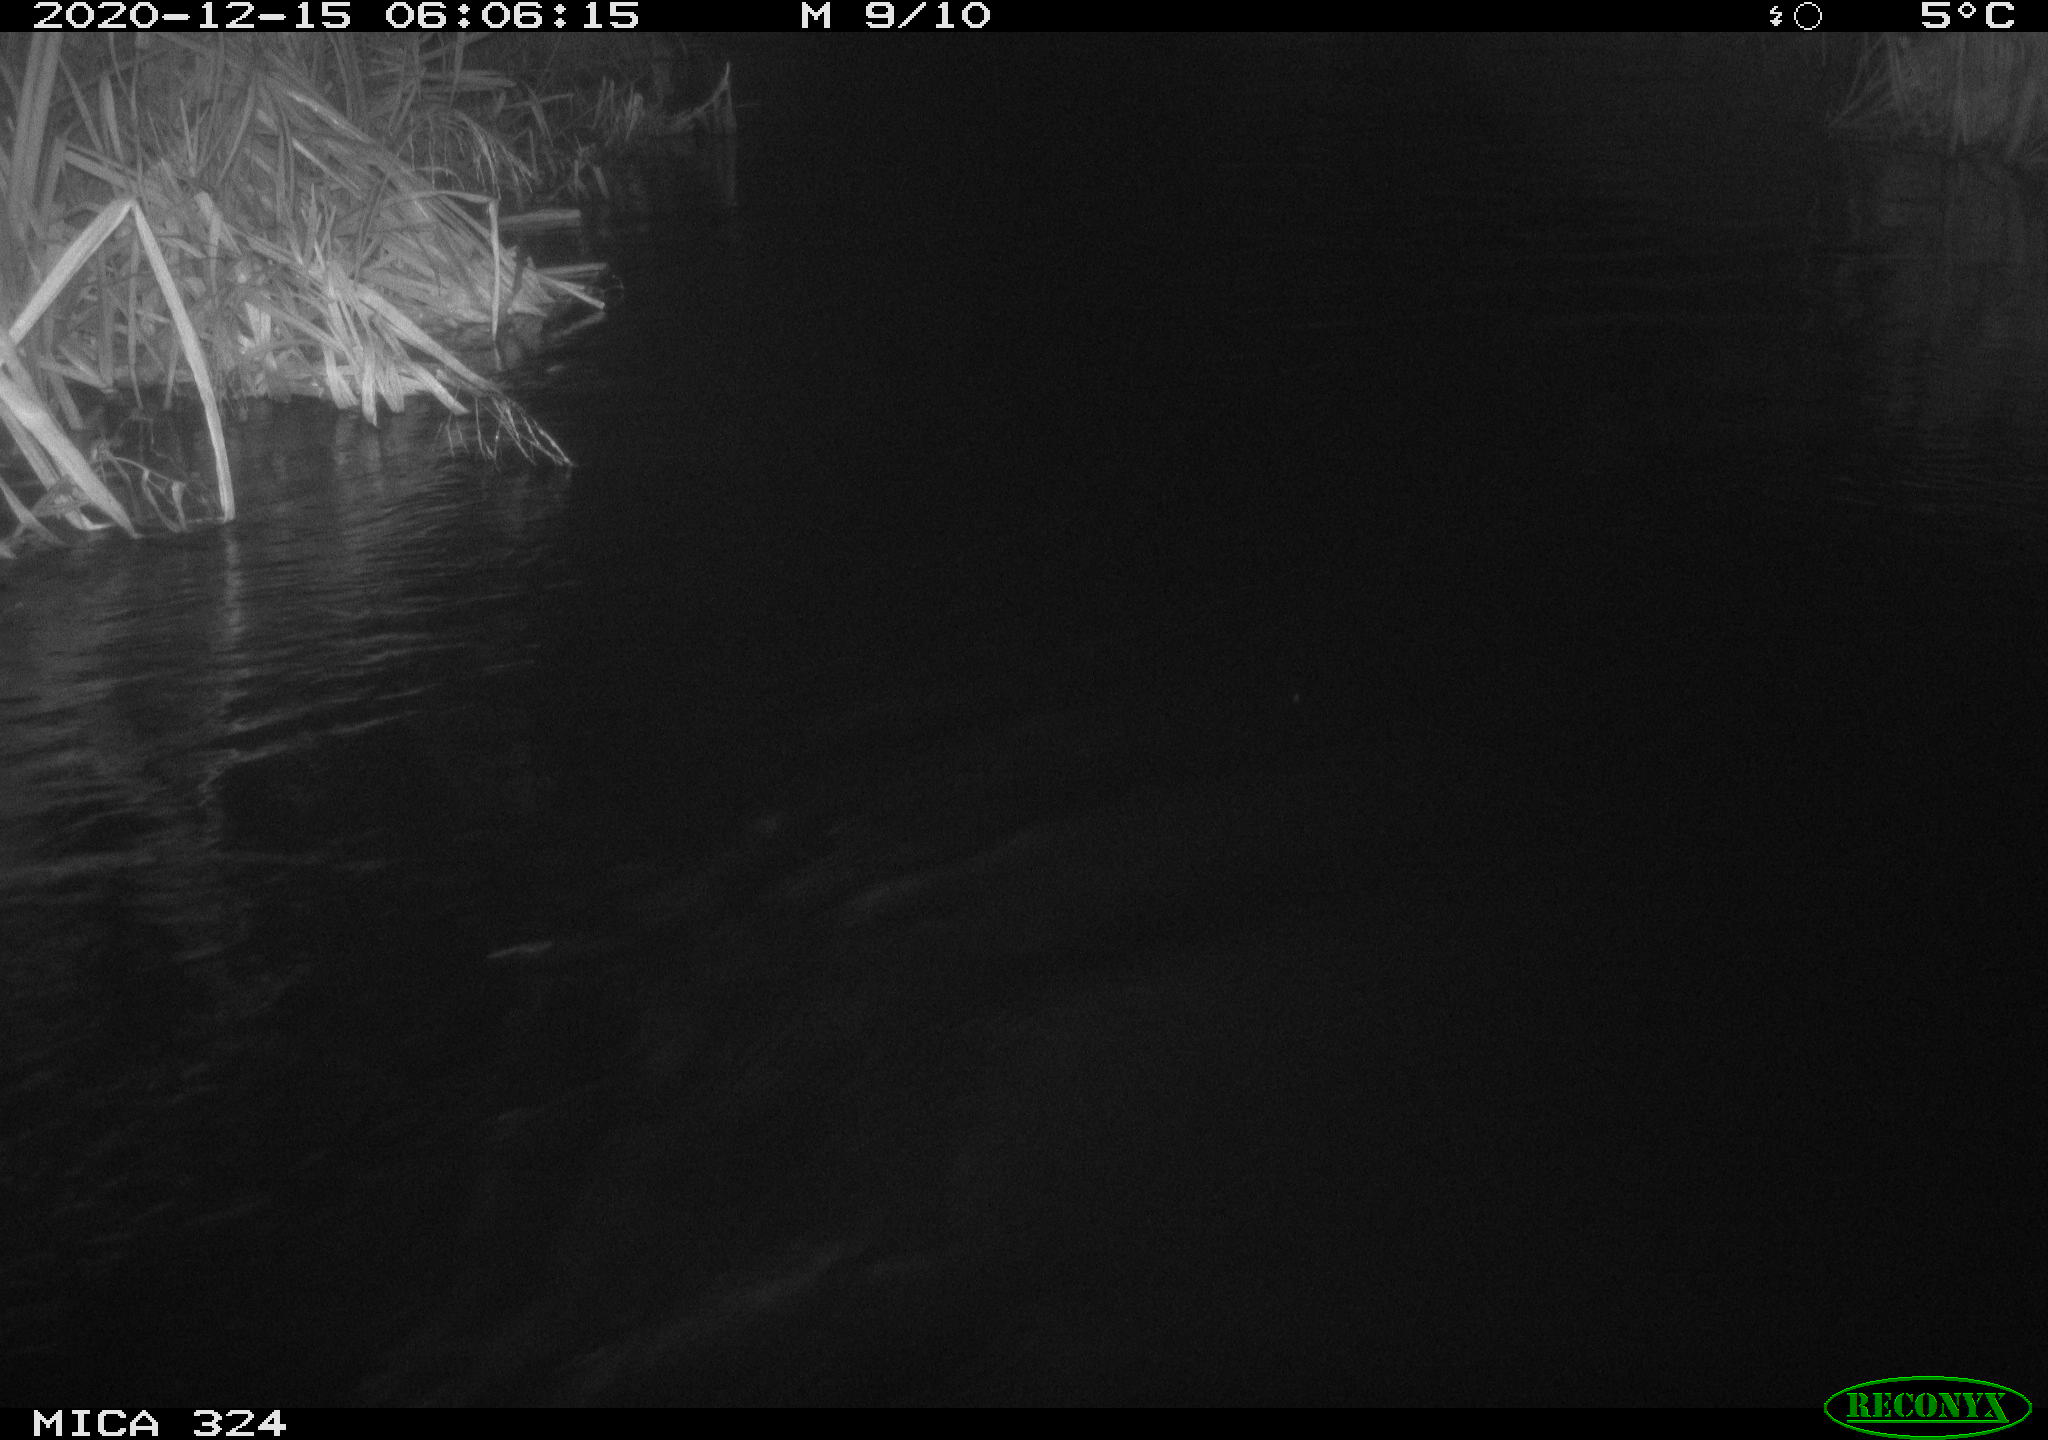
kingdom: Animalia
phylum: Chordata
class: Mammalia
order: Rodentia
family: Myocastoridae
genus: Myocastor
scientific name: Myocastor coypus
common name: Coypu
